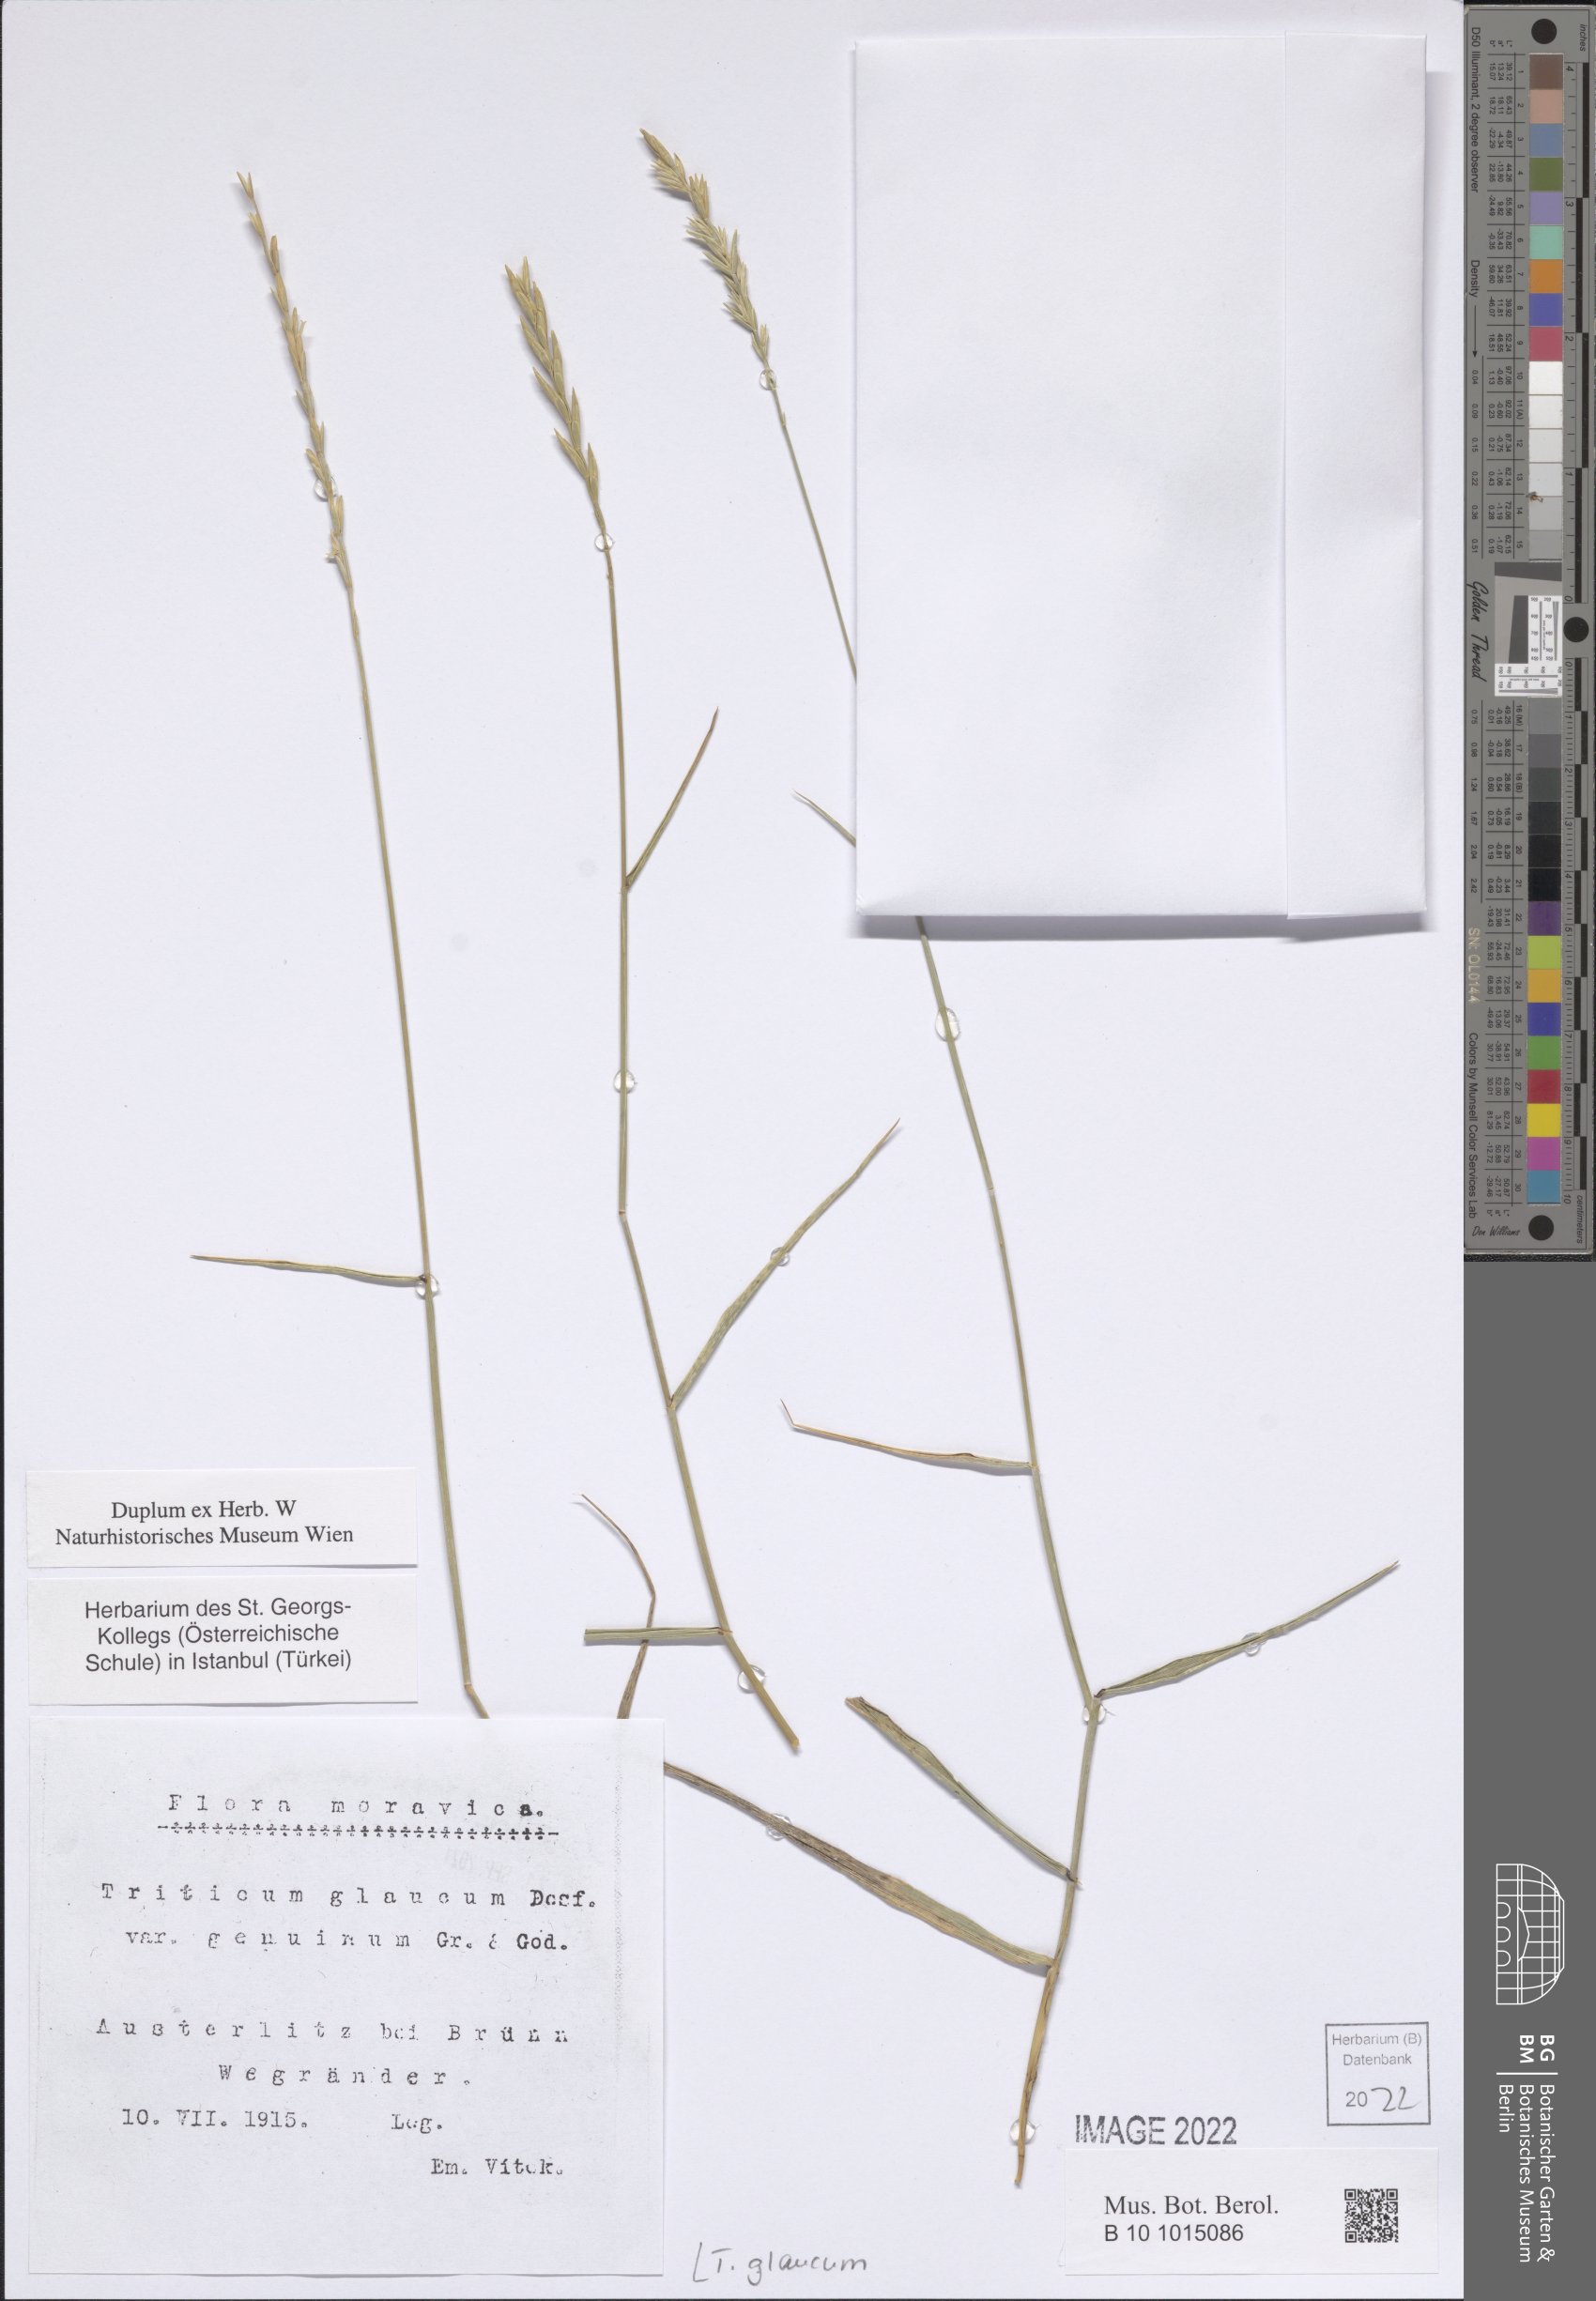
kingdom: Plantae
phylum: Tracheophyta
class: Liliopsida
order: Poales
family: Poaceae
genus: Thinopyrum
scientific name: Thinopyrum intermedium
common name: Intermediate wheatgrass
